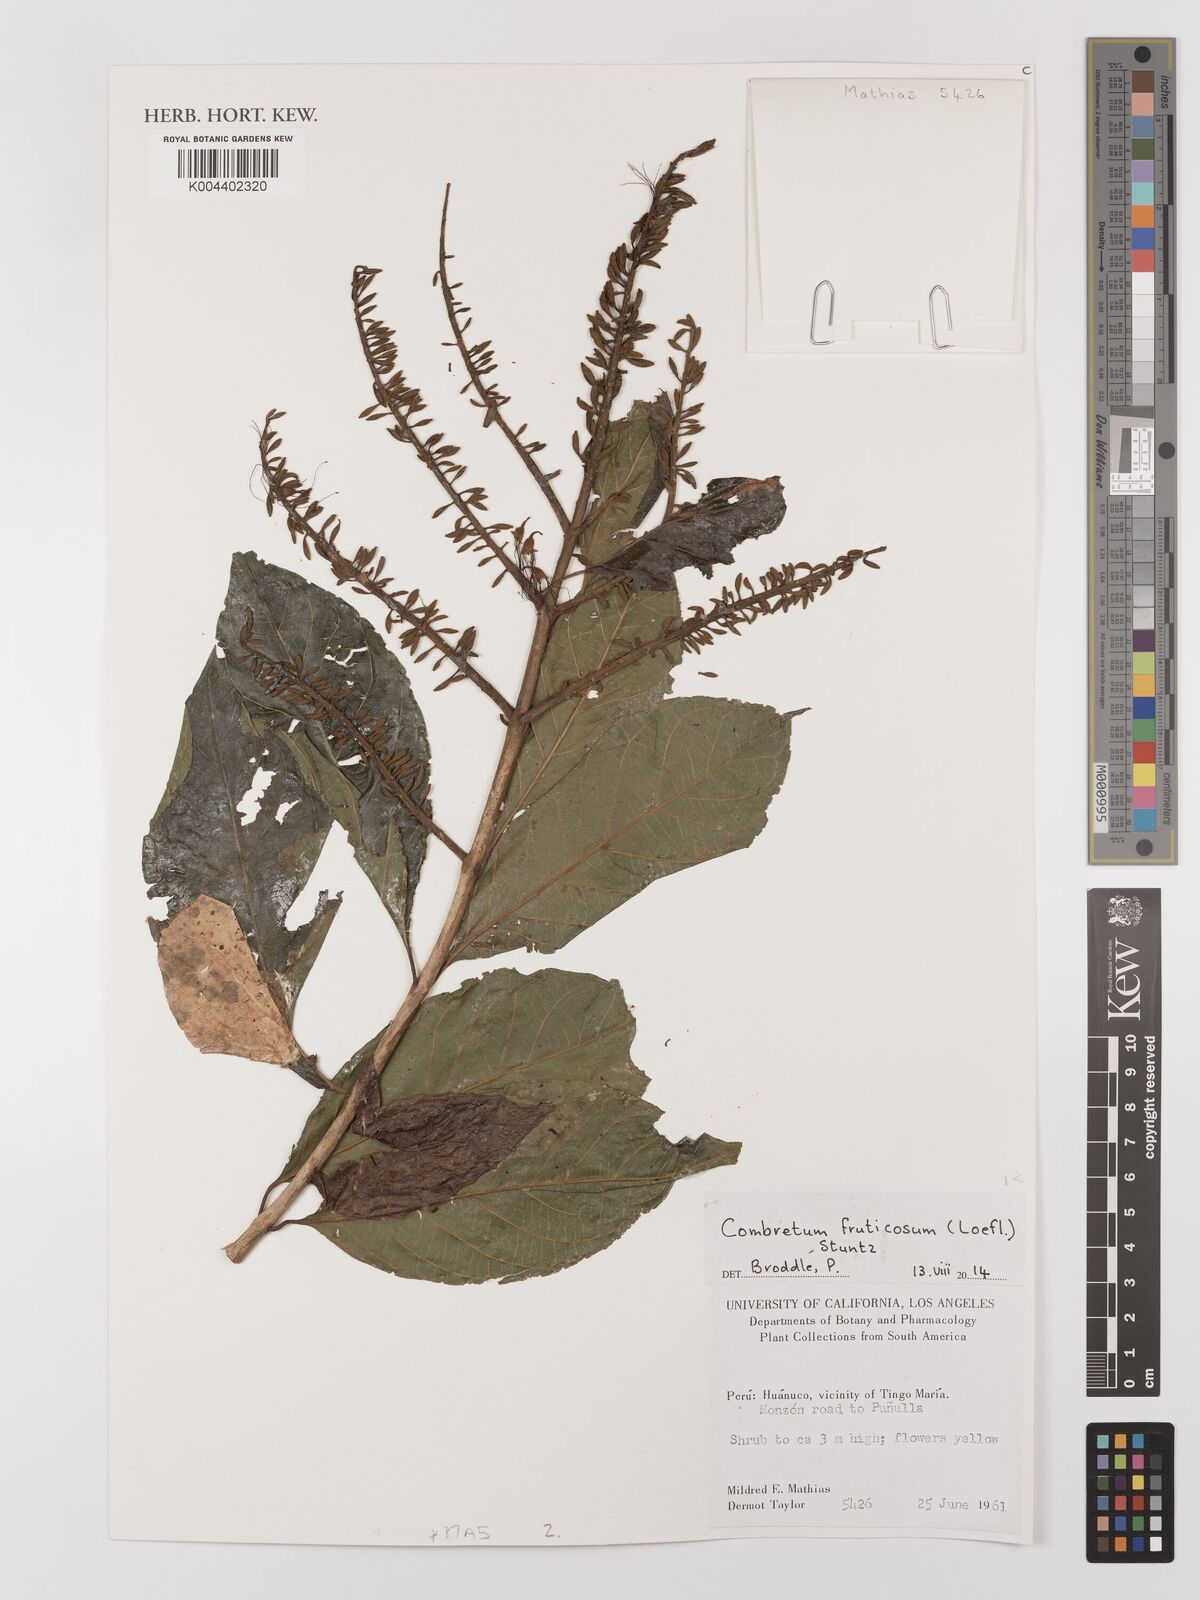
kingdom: Plantae
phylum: Tracheophyta
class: Magnoliopsida
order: Myrtales
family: Combretaceae
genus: Combretum
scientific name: Combretum fruticosum
